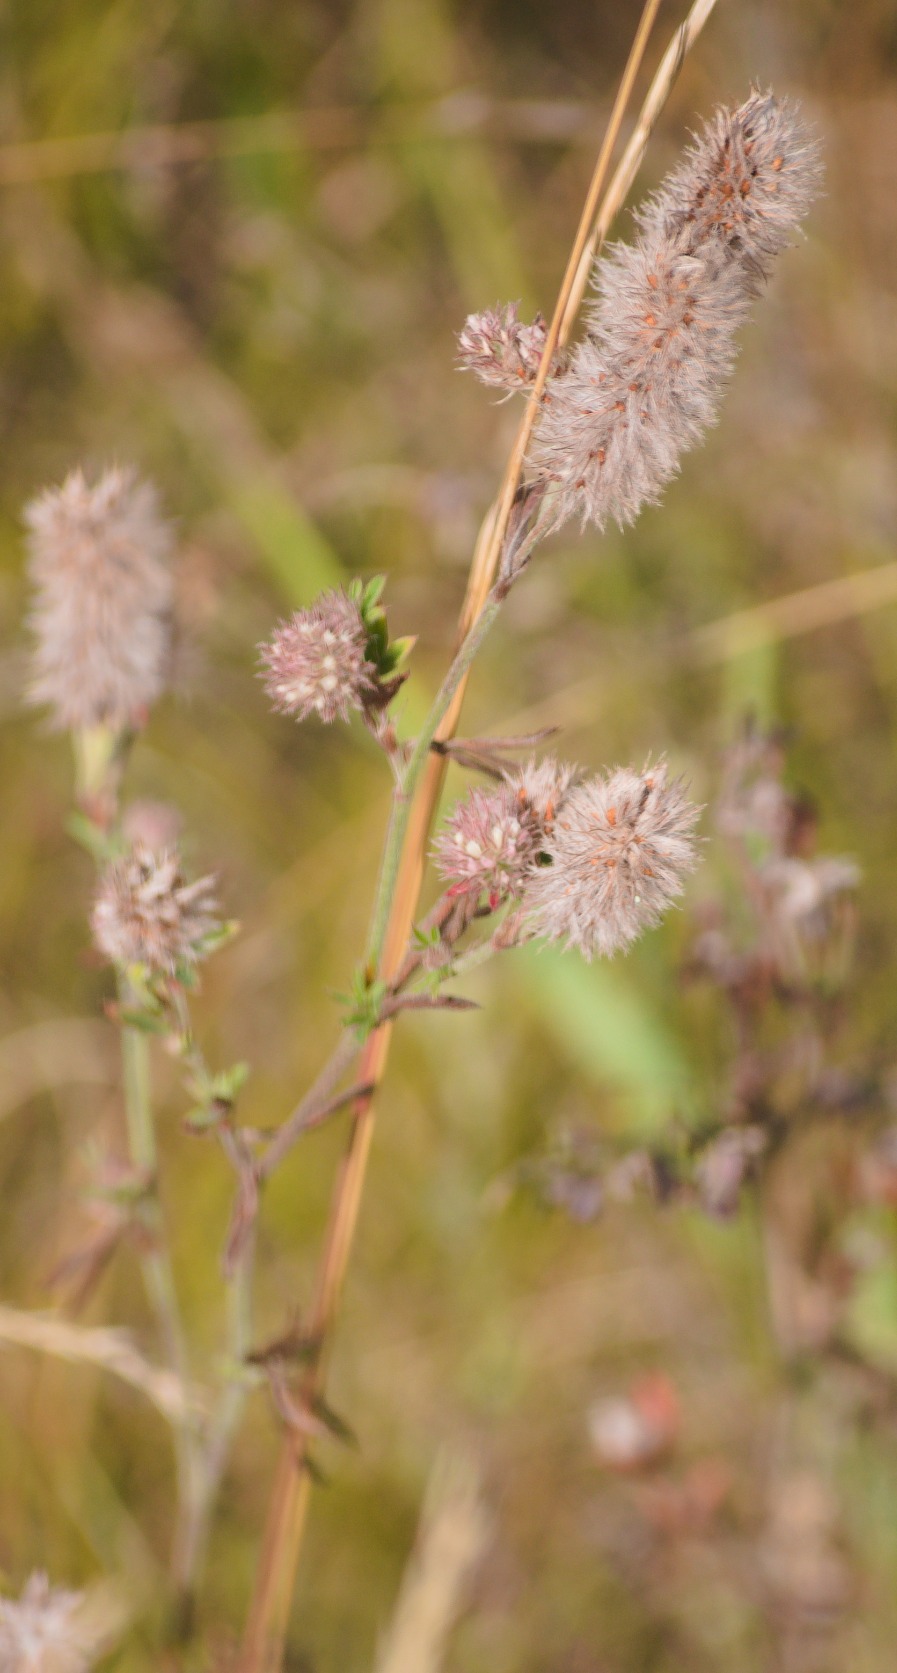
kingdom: Plantae
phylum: Tracheophyta
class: Magnoliopsida
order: Fabales
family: Fabaceae
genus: Trifolium
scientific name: Trifolium arvense
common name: Hare-kløver
